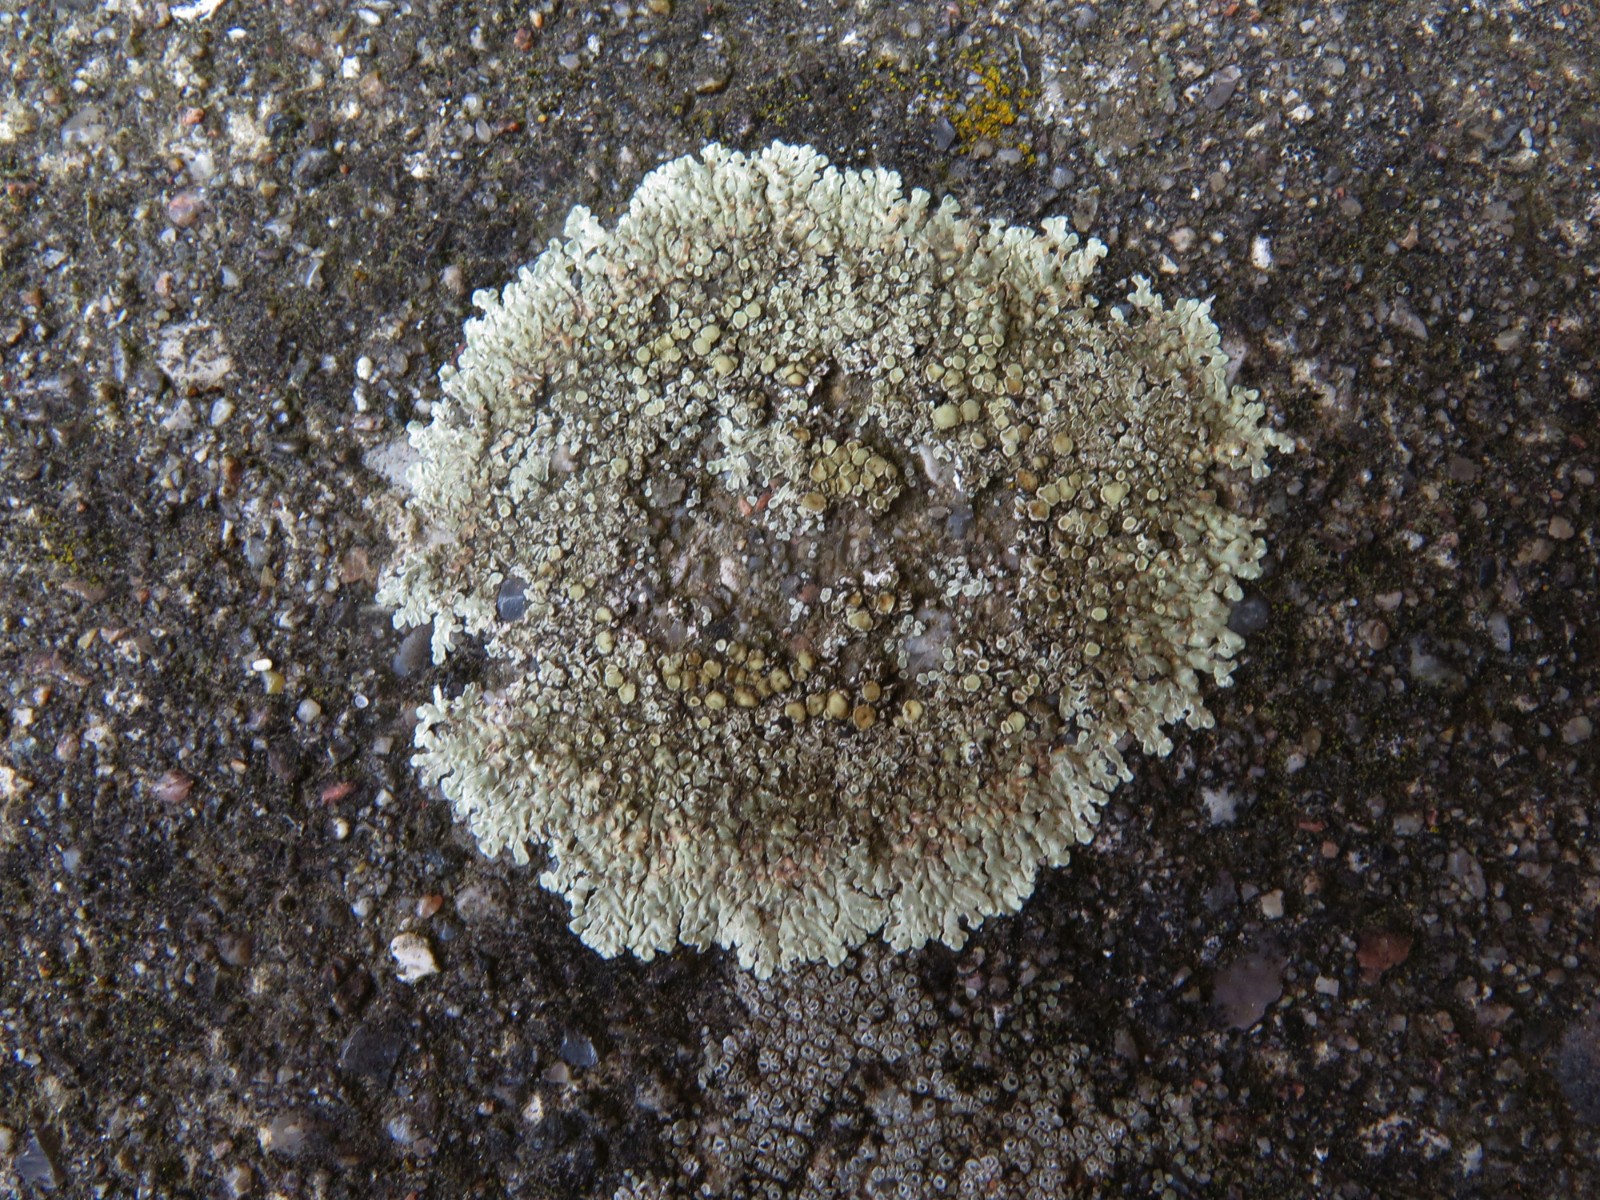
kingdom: Fungi
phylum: Ascomycota
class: Lecanoromycetes
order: Lecanorales
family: Lecanoraceae
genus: Protoparmeliopsis
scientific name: Protoparmeliopsis muralis
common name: randfliget kantskivelav
